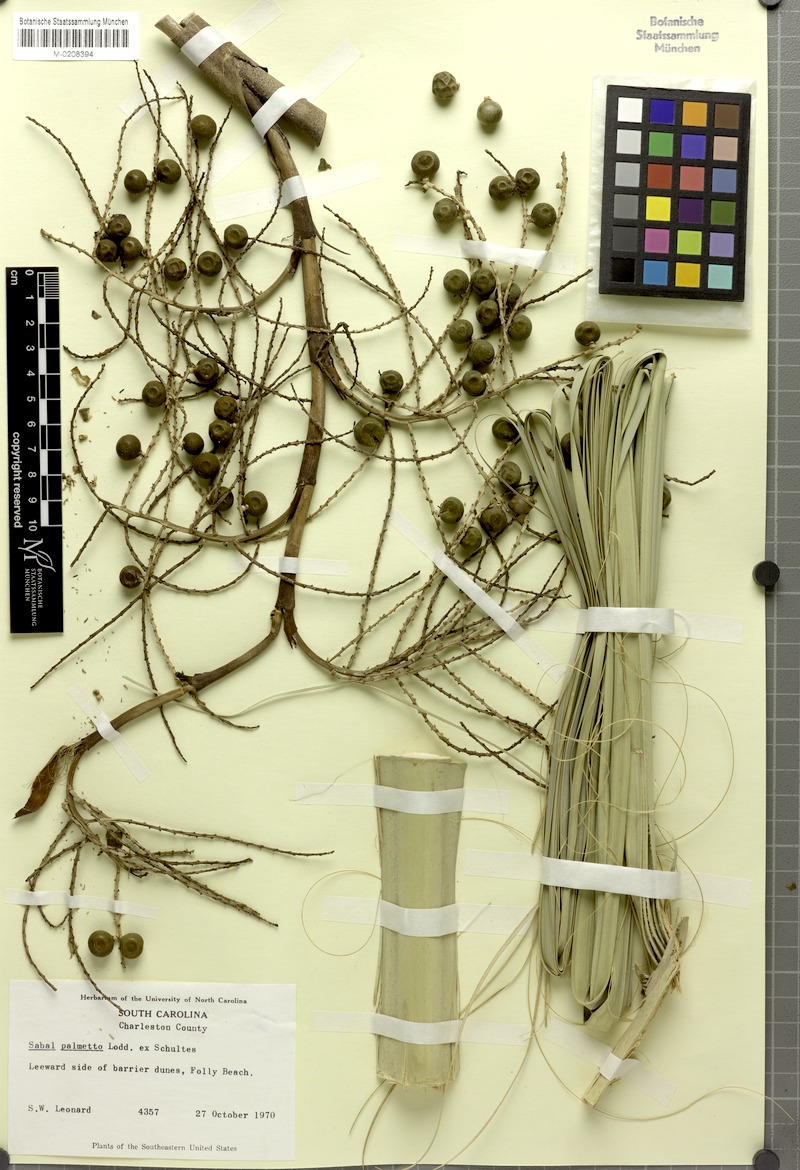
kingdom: Plantae
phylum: Tracheophyta
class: Liliopsida
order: Arecales
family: Arecaceae
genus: Sabal
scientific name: Sabal palmetto
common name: Blue palmetto
